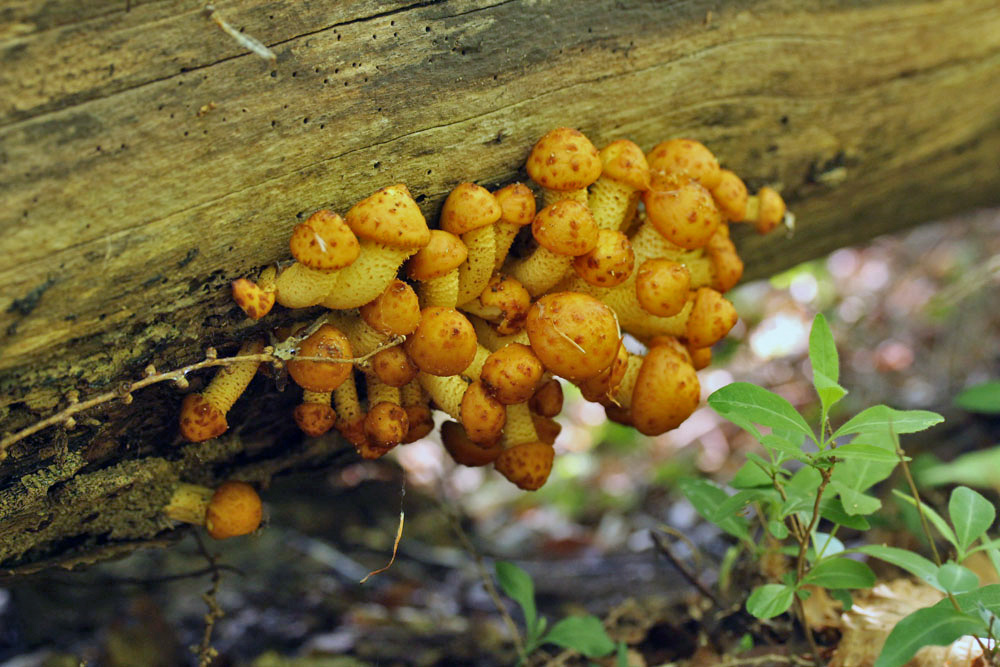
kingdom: Fungi
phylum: Basidiomycota
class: Agaricomycetes
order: Agaricales
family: Strophariaceae
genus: Pholiota
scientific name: Pholiota adiposa
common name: højtsiddende skælhat
